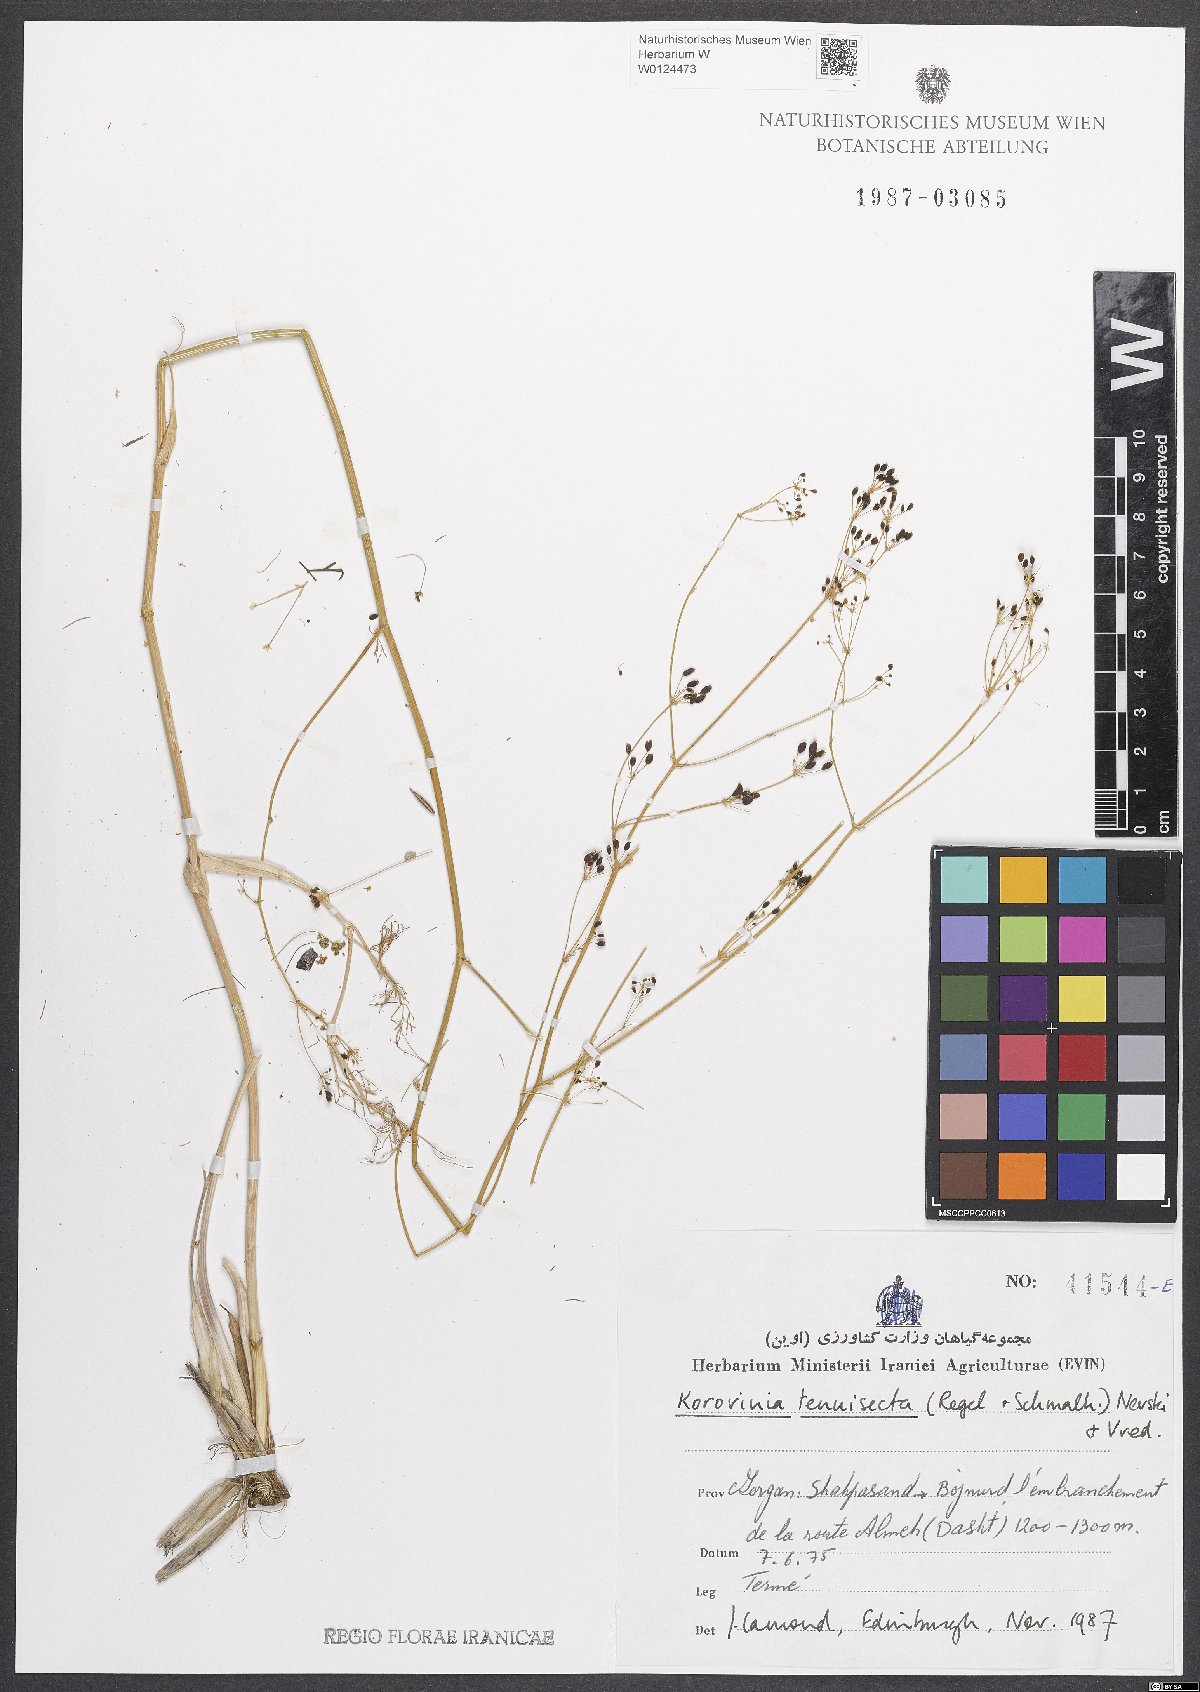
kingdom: Plantae
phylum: Tracheophyta
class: Magnoliopsida
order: Apiales
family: Apiaceae
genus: Galagania
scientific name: Galagania tenuisecta
